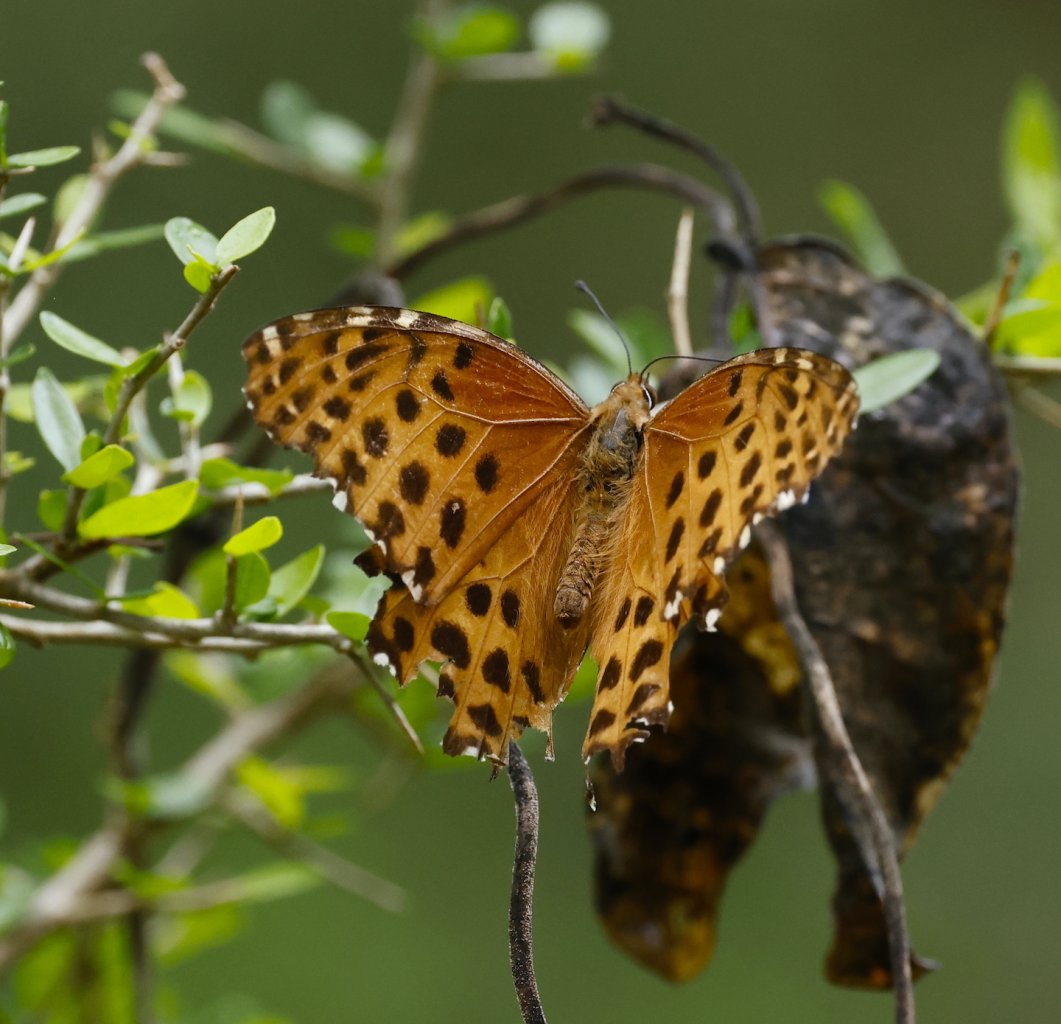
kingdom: Animalia
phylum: Arthropoda
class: Insecta
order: Lepidoptera
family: Nymphalidae
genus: Anetia
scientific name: Anetia briarea
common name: Many-spotted King
